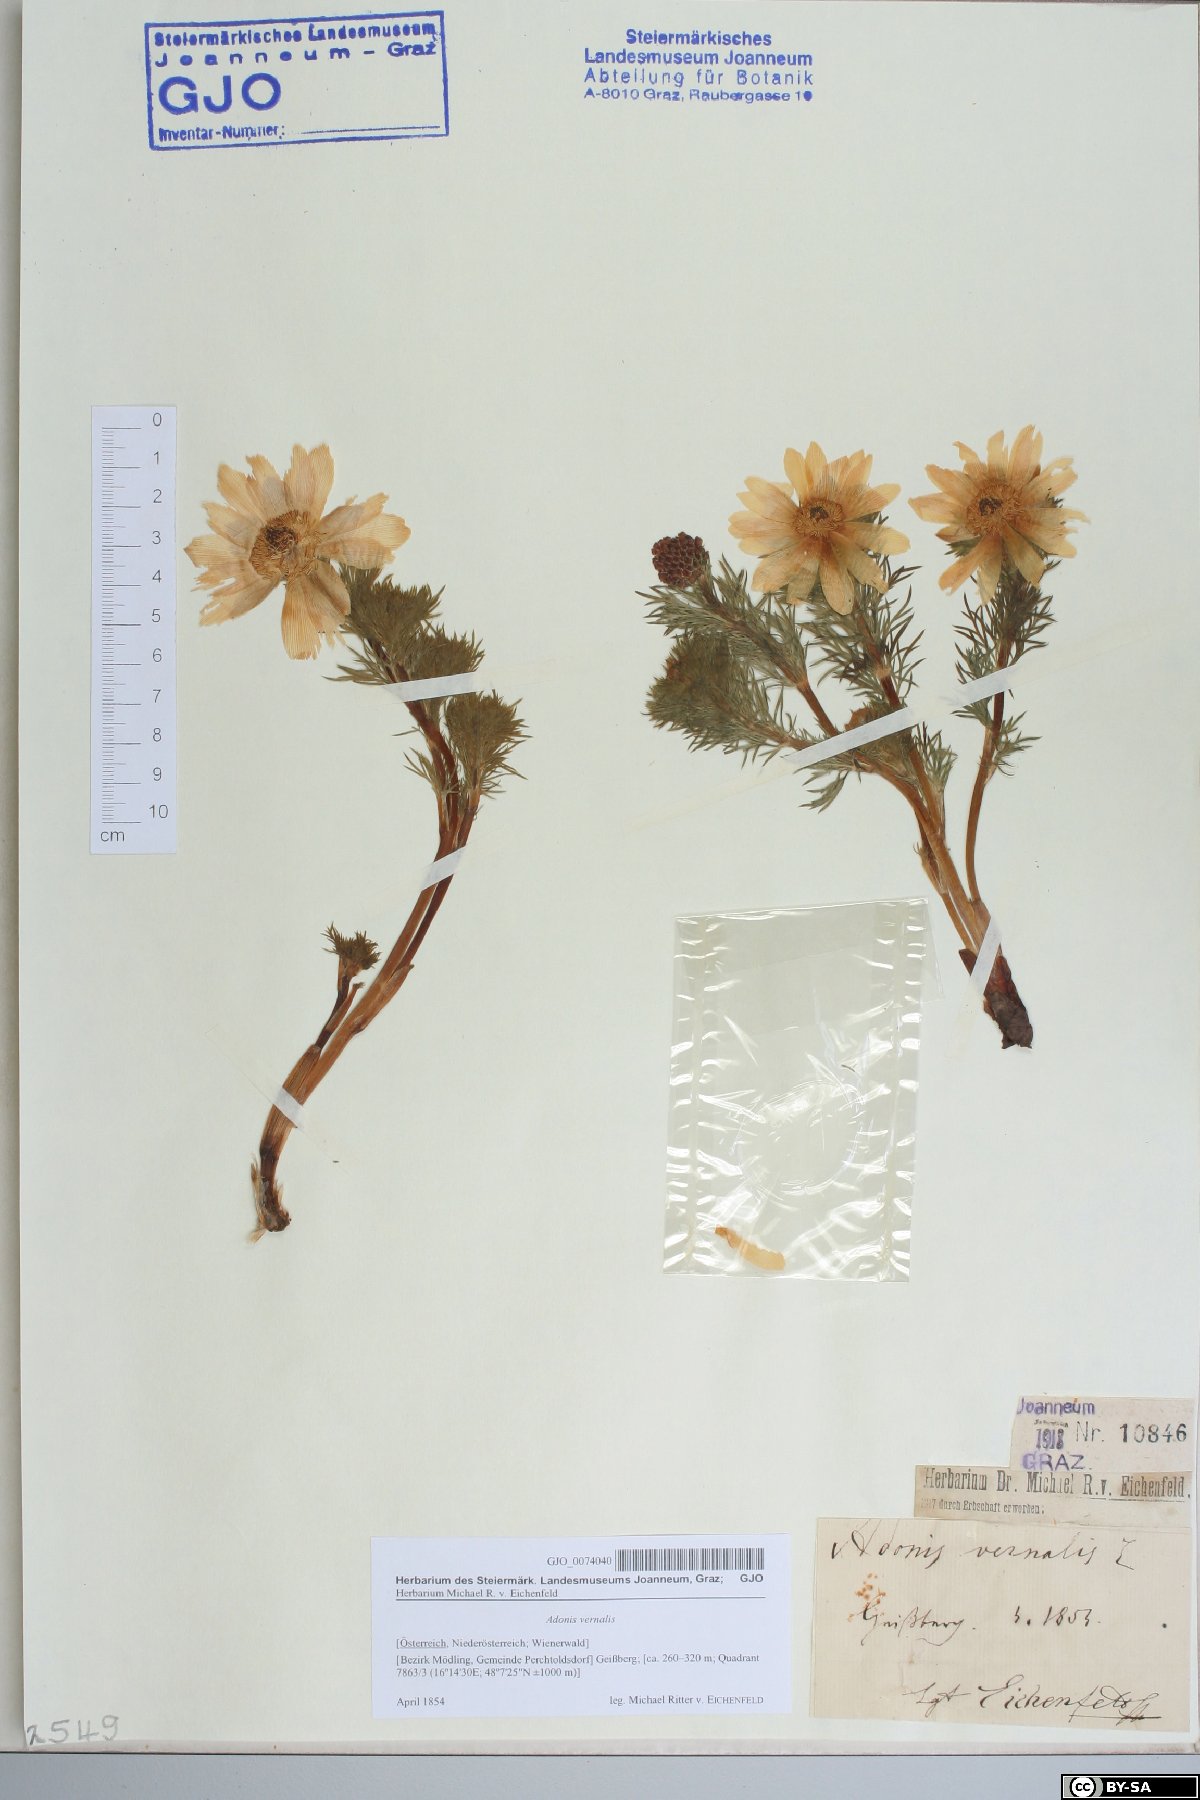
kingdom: Plantae
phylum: Tracheophyta
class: Magnoliopsida
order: Ranunculales
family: Ranunculaceae
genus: Adonis
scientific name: Adonis vernalis
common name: Yellow pheasants-eye
